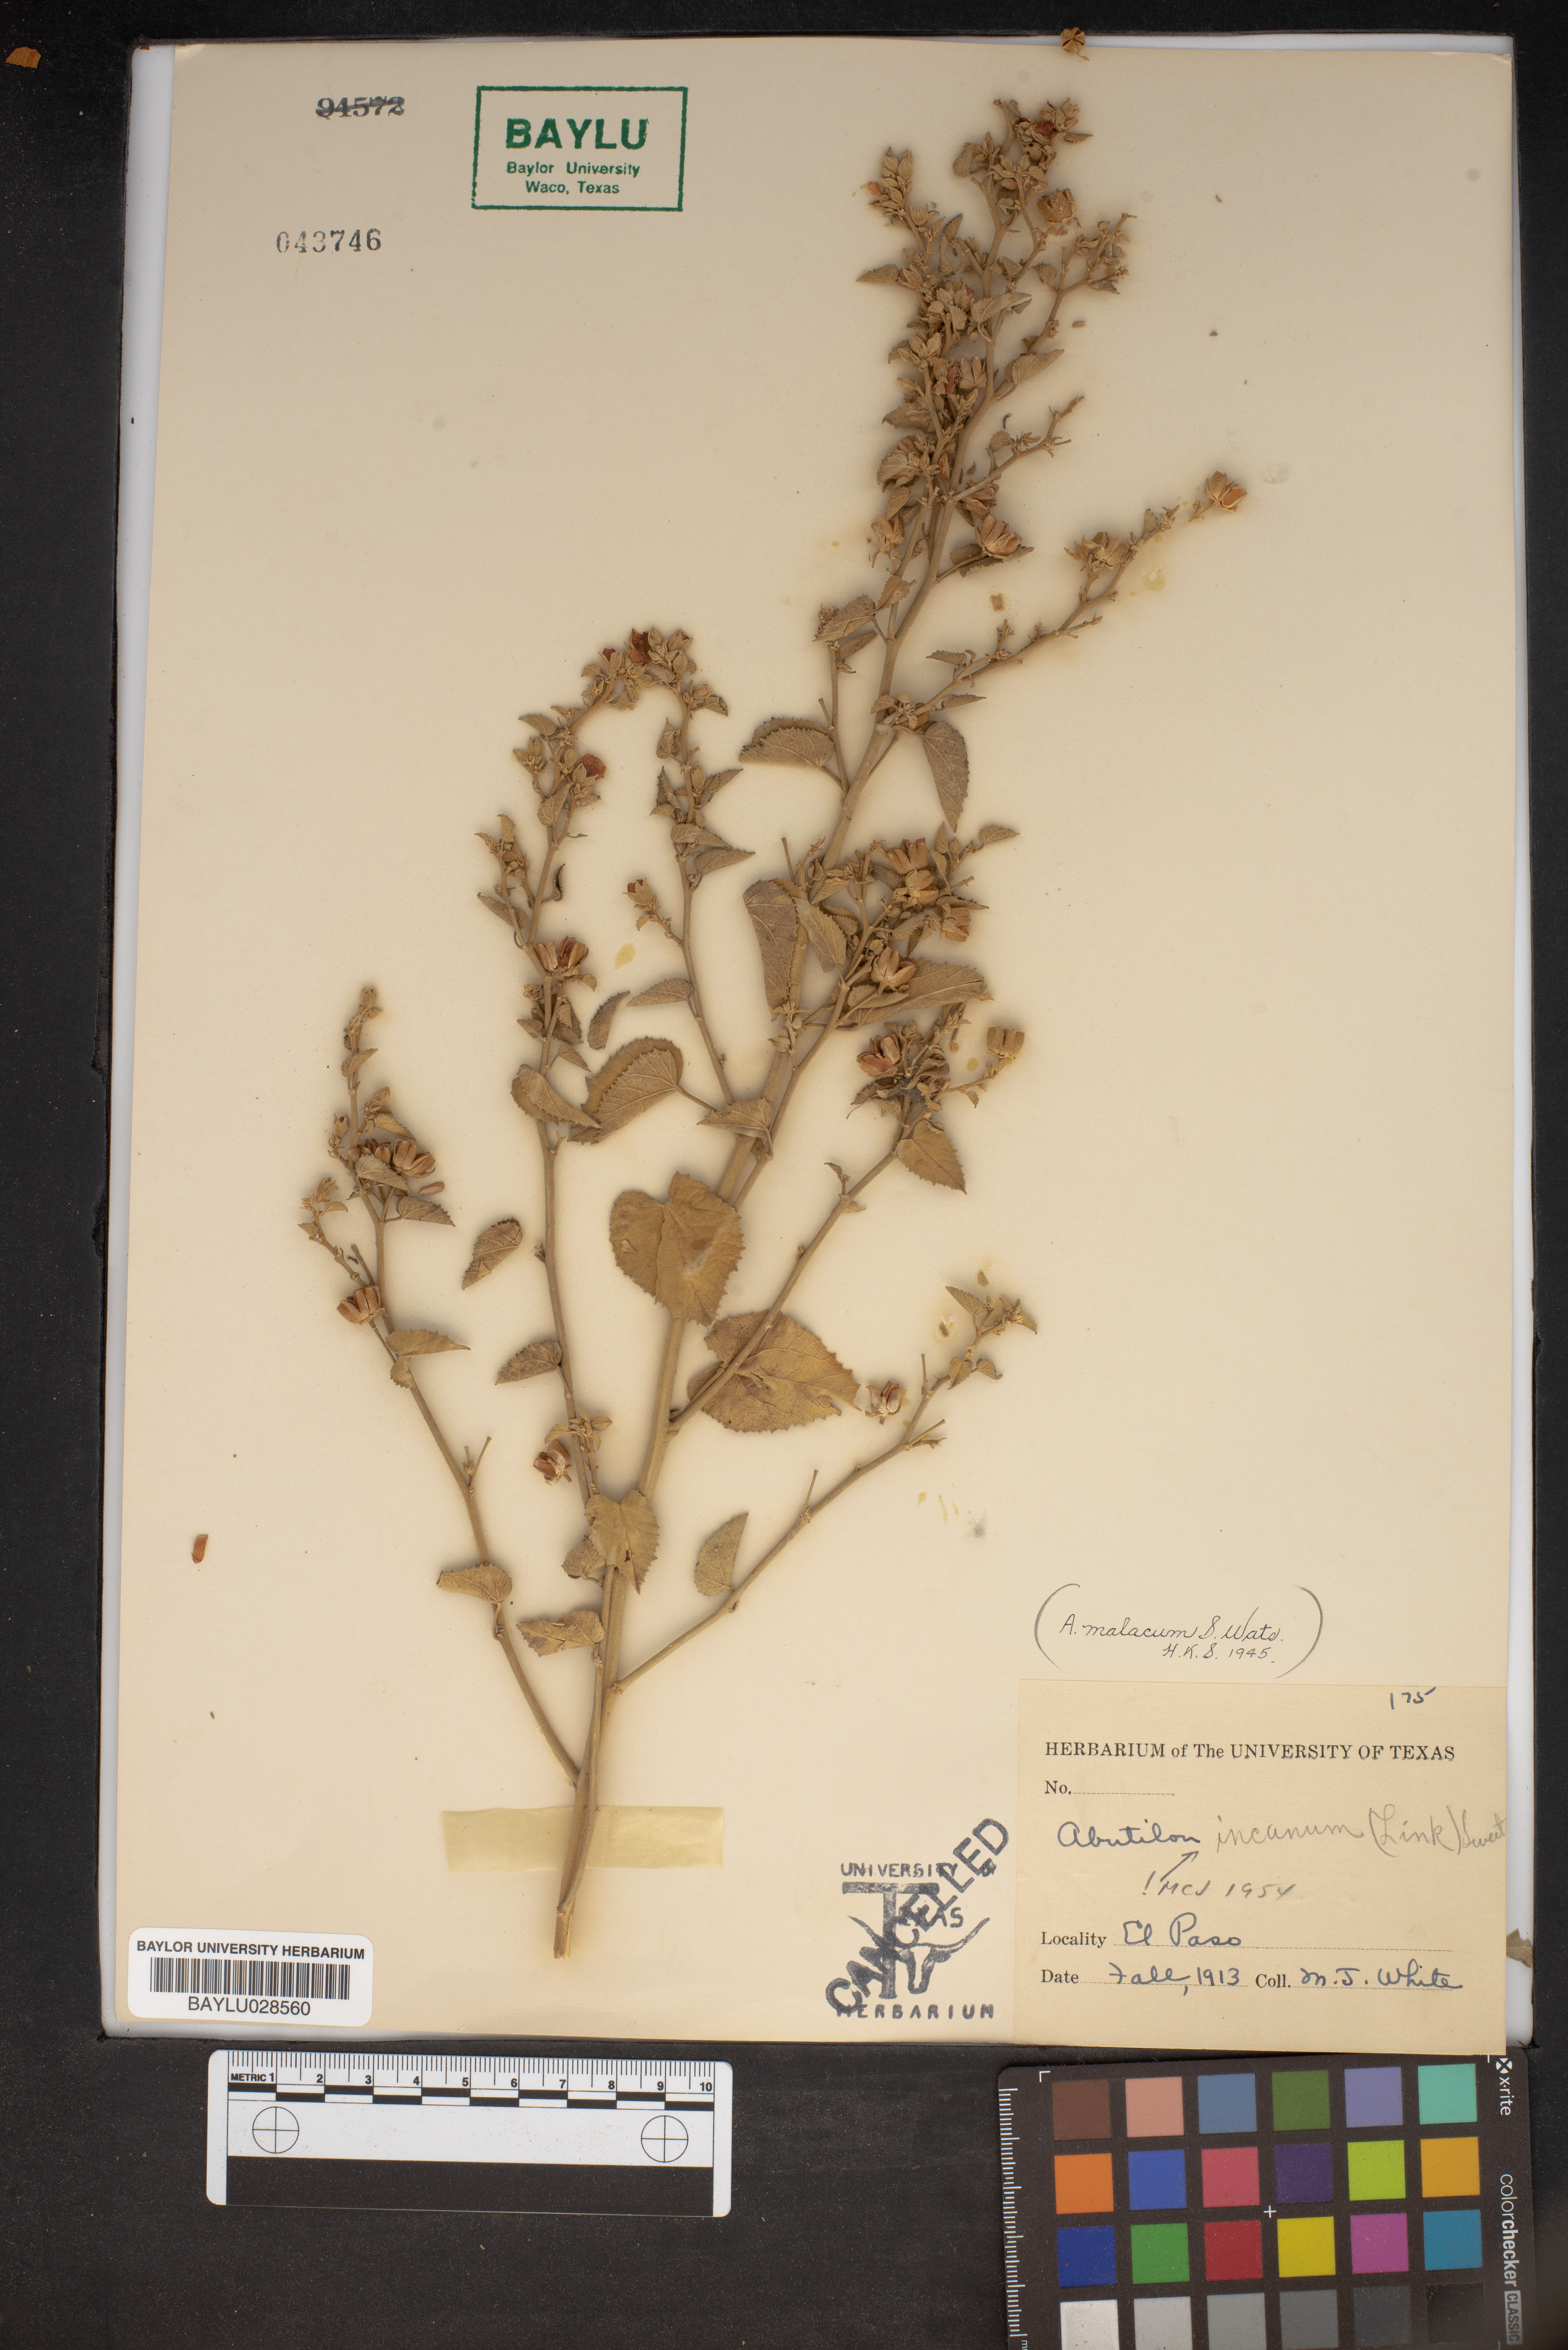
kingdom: Plantae
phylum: Tracheophyta
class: Magnoliopsida
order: Malvales
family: Malvaceae
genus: Abutilon
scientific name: Abutilon incanum
